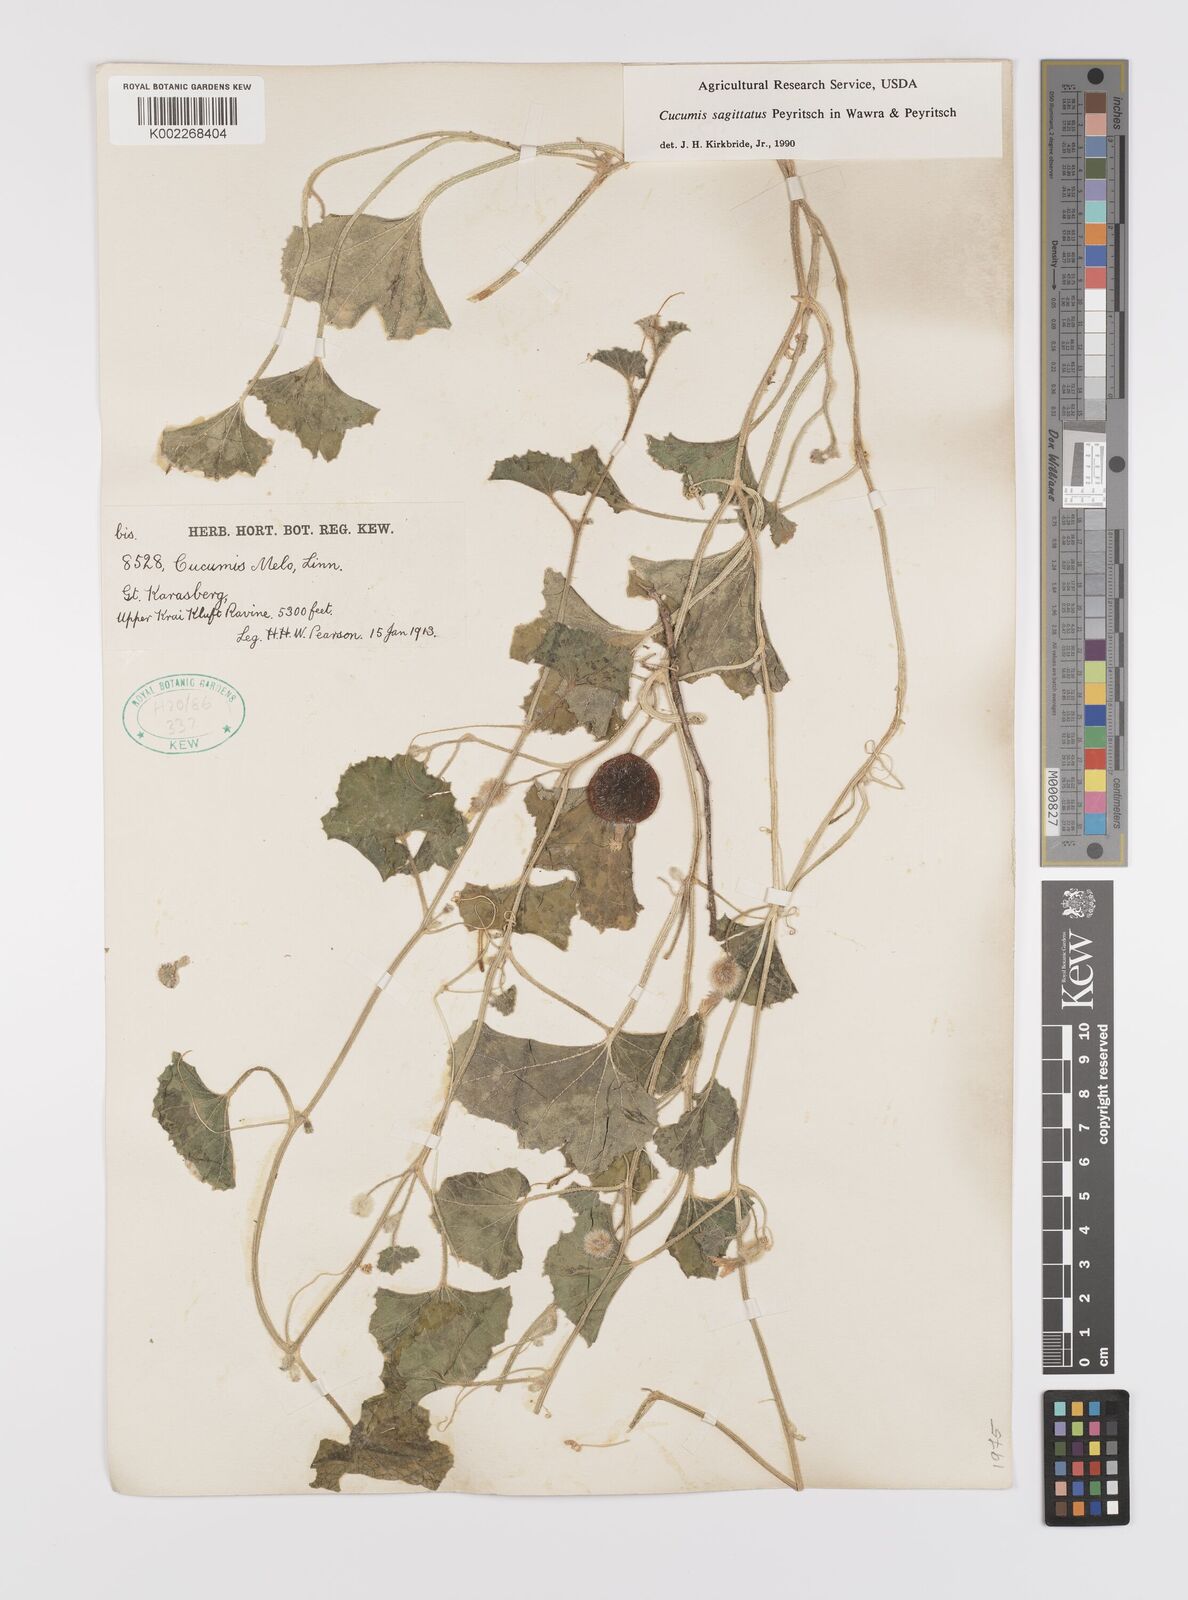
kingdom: Plantae
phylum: Tracheophyta
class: Magnoliopsida
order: Cucurbitales
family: Cucurbitaceae
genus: Cucumis
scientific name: Cucumis sagittatus
